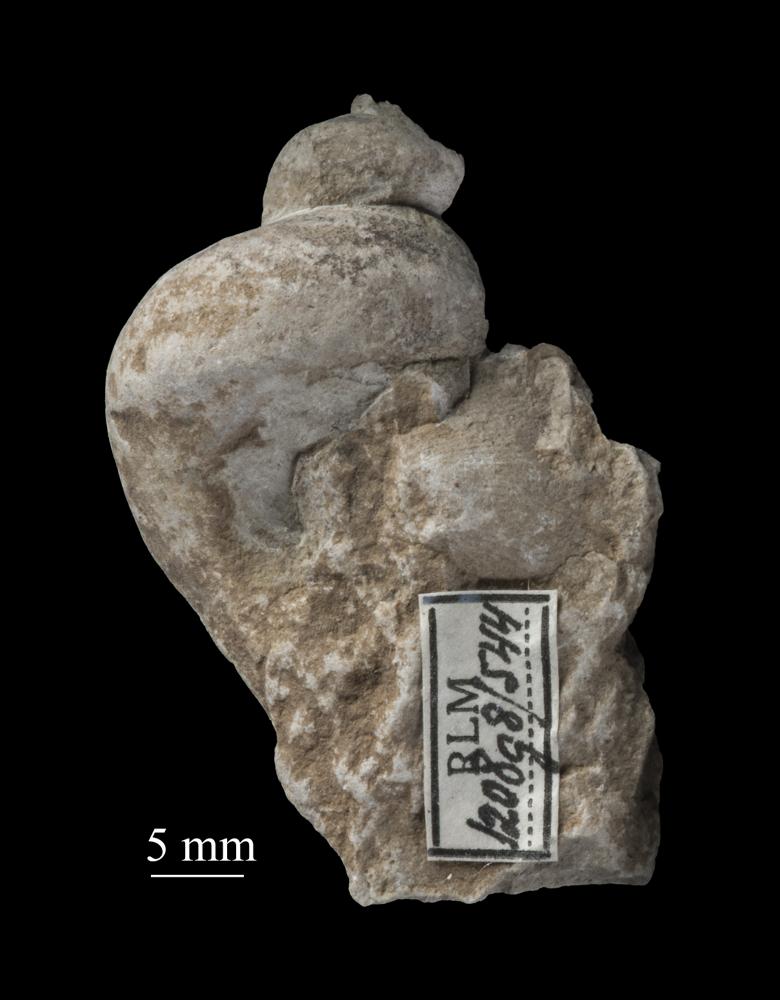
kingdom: Animalia
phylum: Mollusca
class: Gastropoda
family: Lophospiridae
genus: Loxoplocus
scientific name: Loxoplocus Worthenia vermetus
